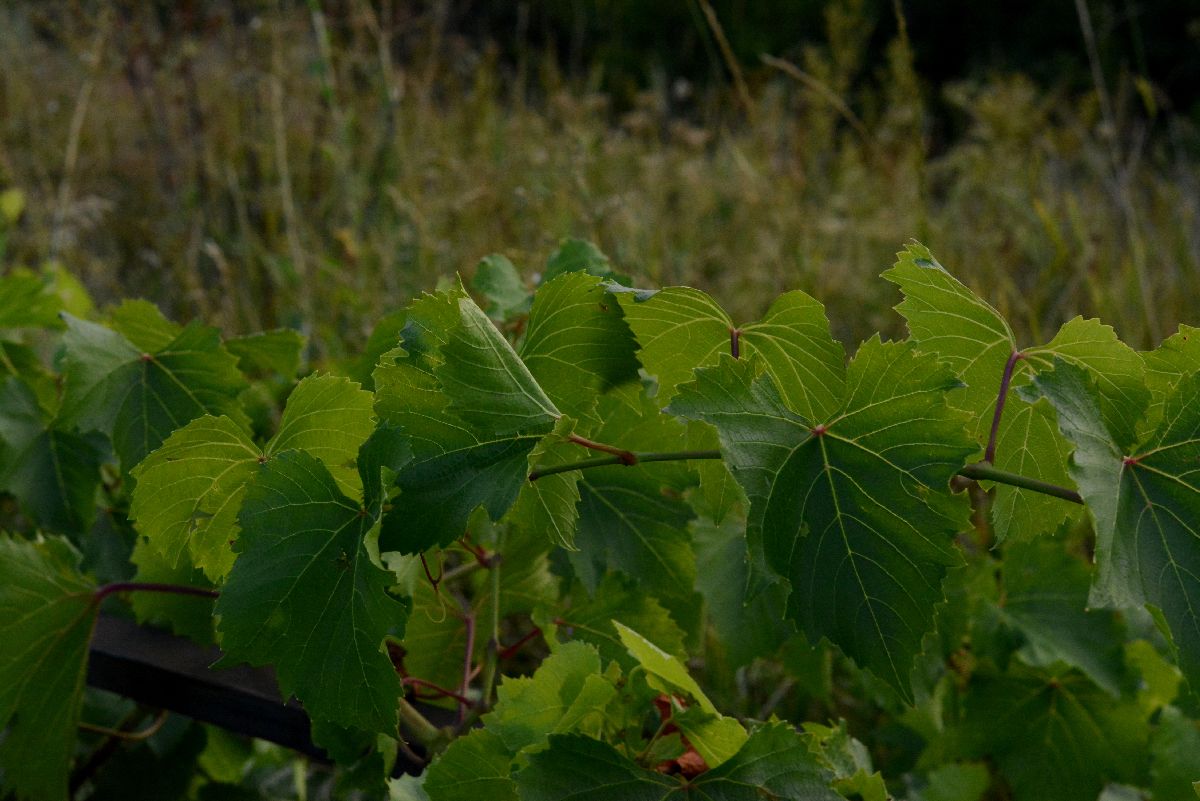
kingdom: Plantae
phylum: Tracheophyta
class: Magnoliopsida
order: Vitales
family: Vitaceae
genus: Vitis
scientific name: Vitis vinifera
